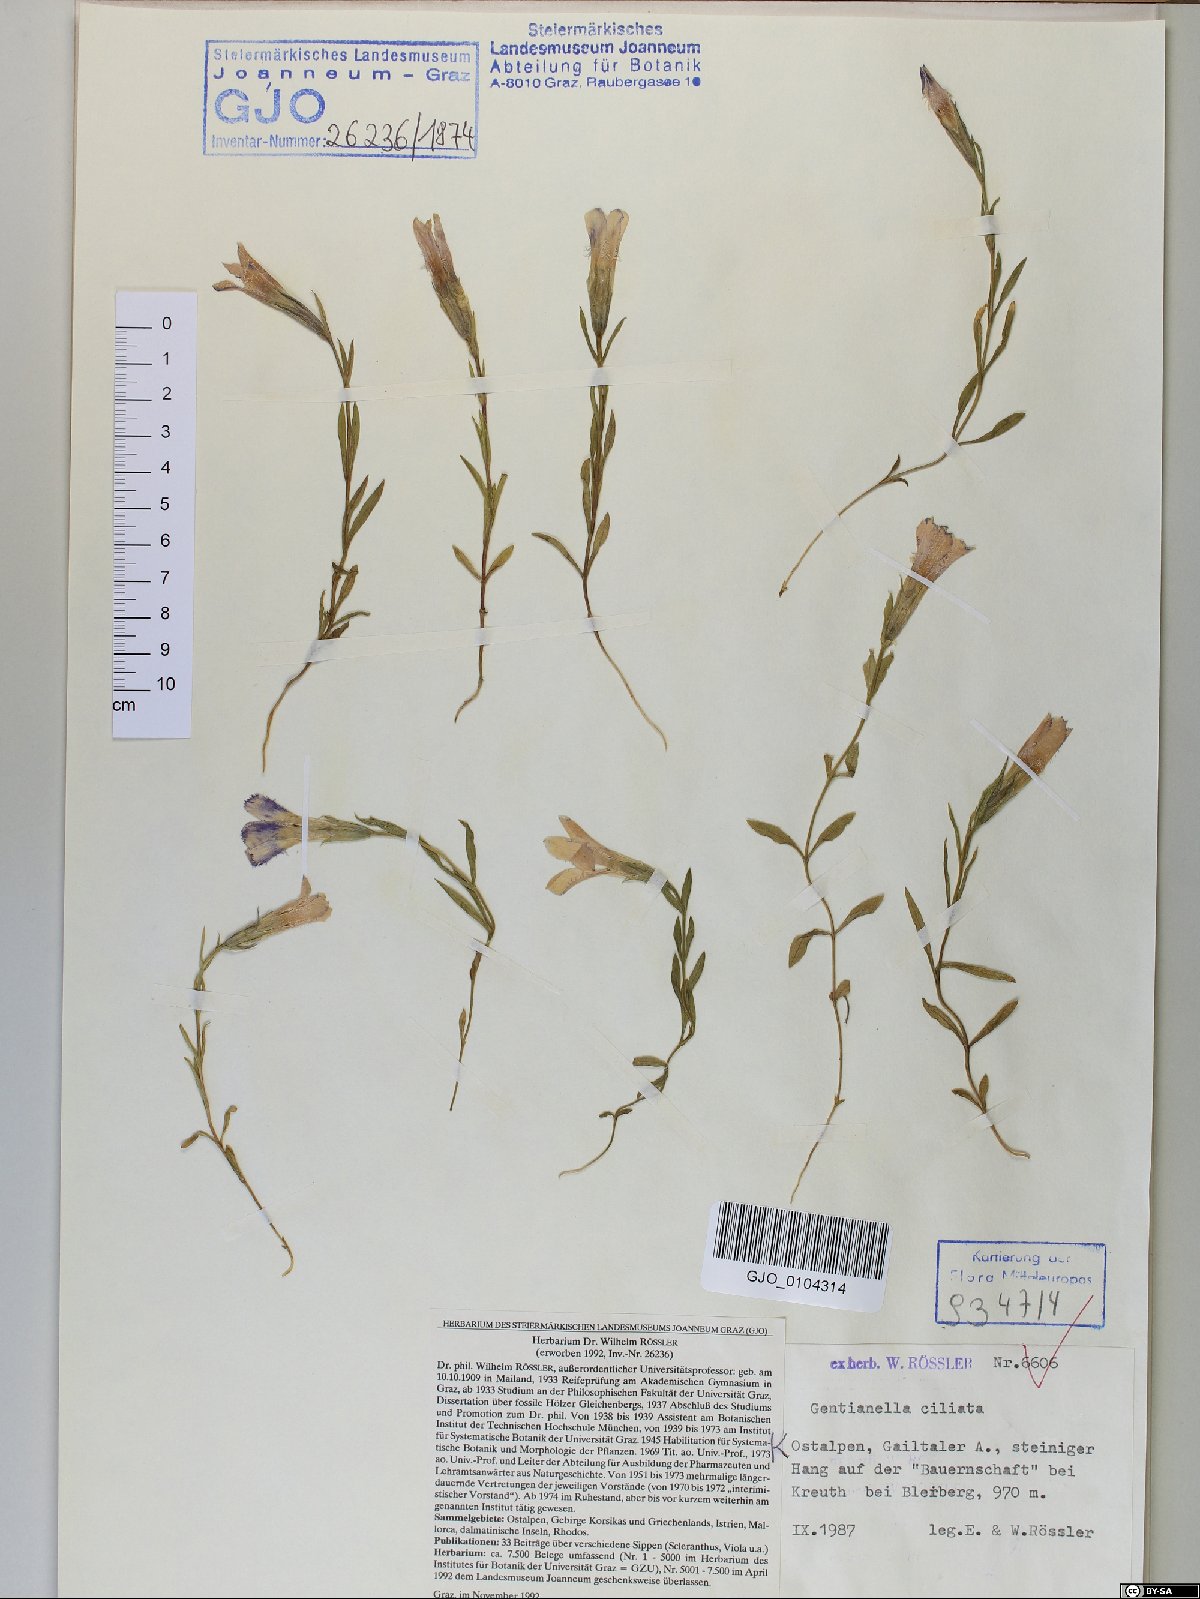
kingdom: Plantae
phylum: Tracheophyta
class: Magnoliopsida
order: Gentianales
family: Gentianaceae
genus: Gentianopsis
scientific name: Gentianopsis ciliata
